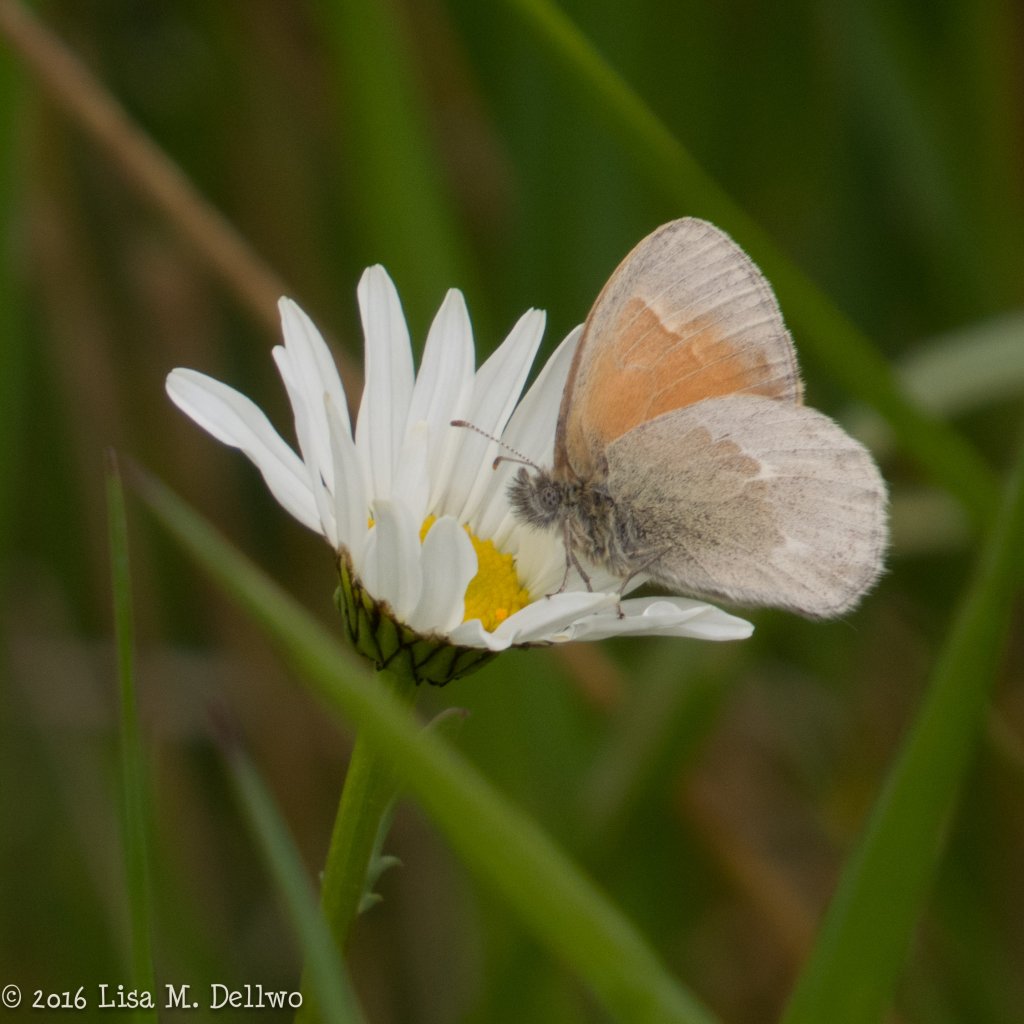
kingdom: Animalia
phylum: Arthropoda
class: Insecta
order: Lepidoptera
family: Nymphalidae
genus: Coenonympha
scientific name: Coenonympha tullia
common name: Large Heath
